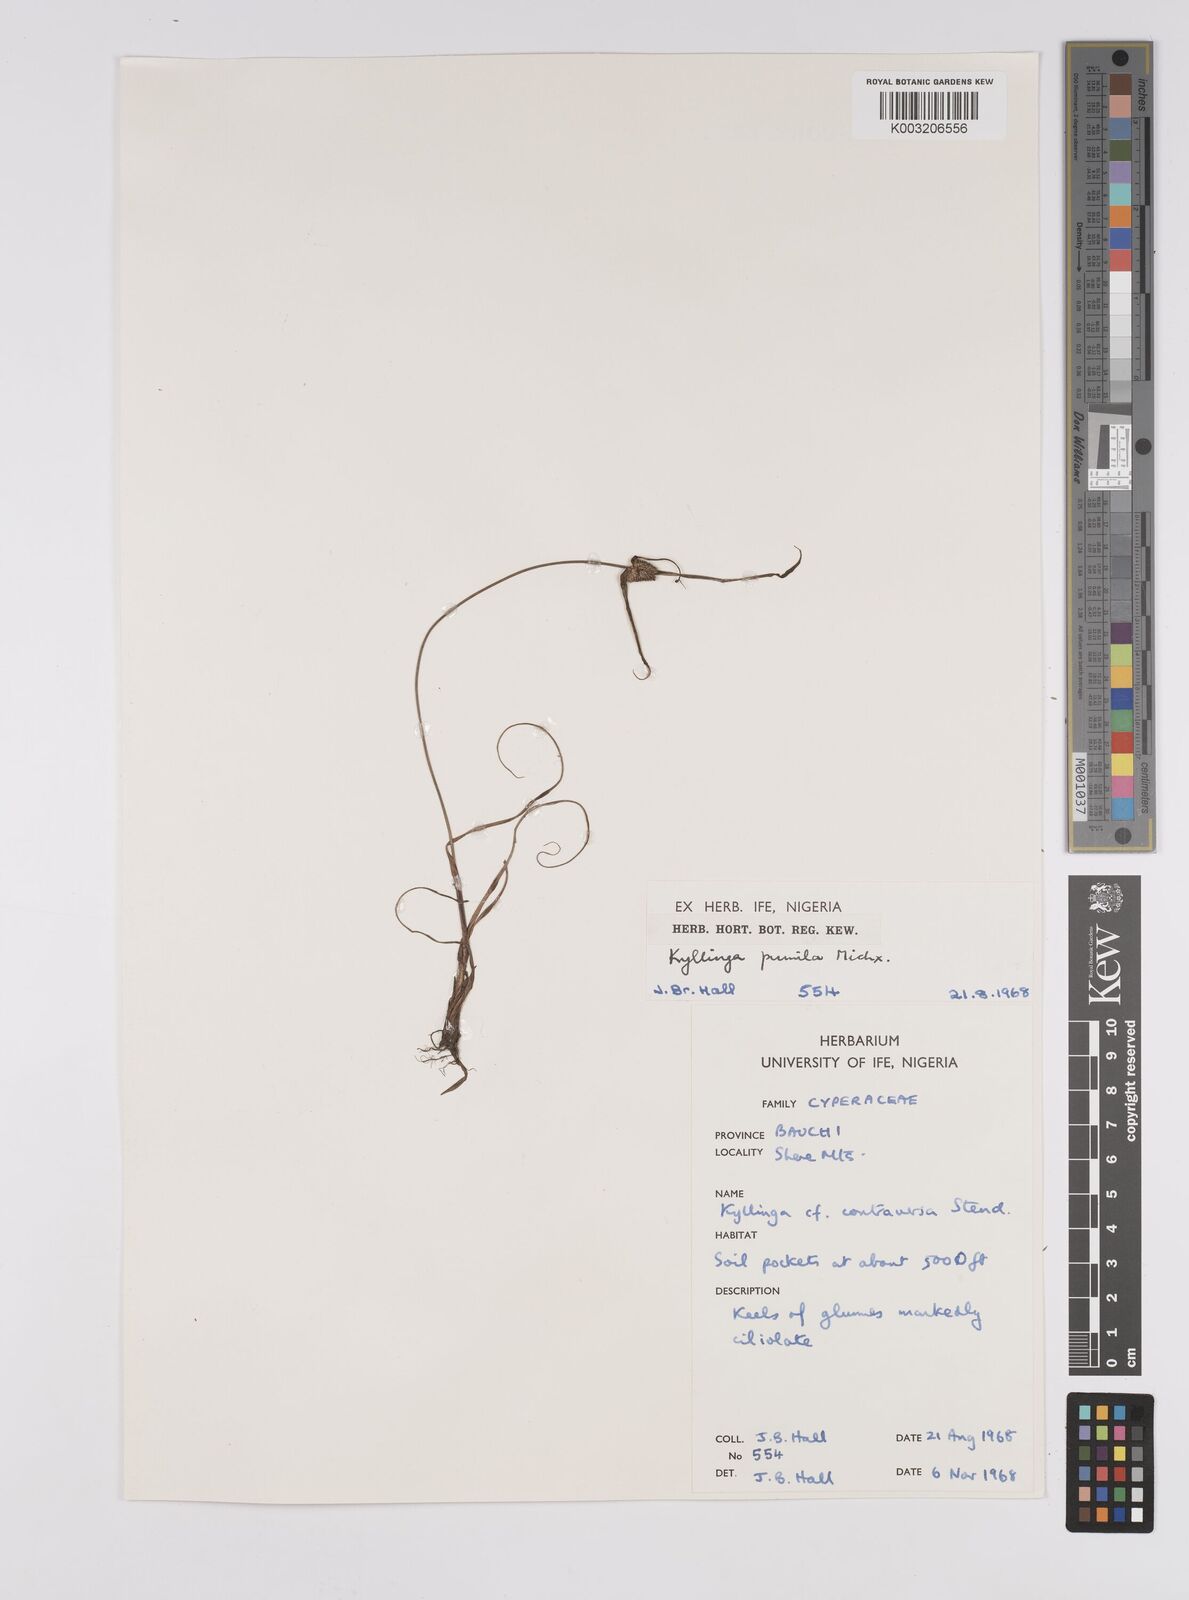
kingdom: Plantae
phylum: Tracheophyta
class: Liliopsida
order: Poales
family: Cyperaceae
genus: Cyperus
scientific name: Cyperus
